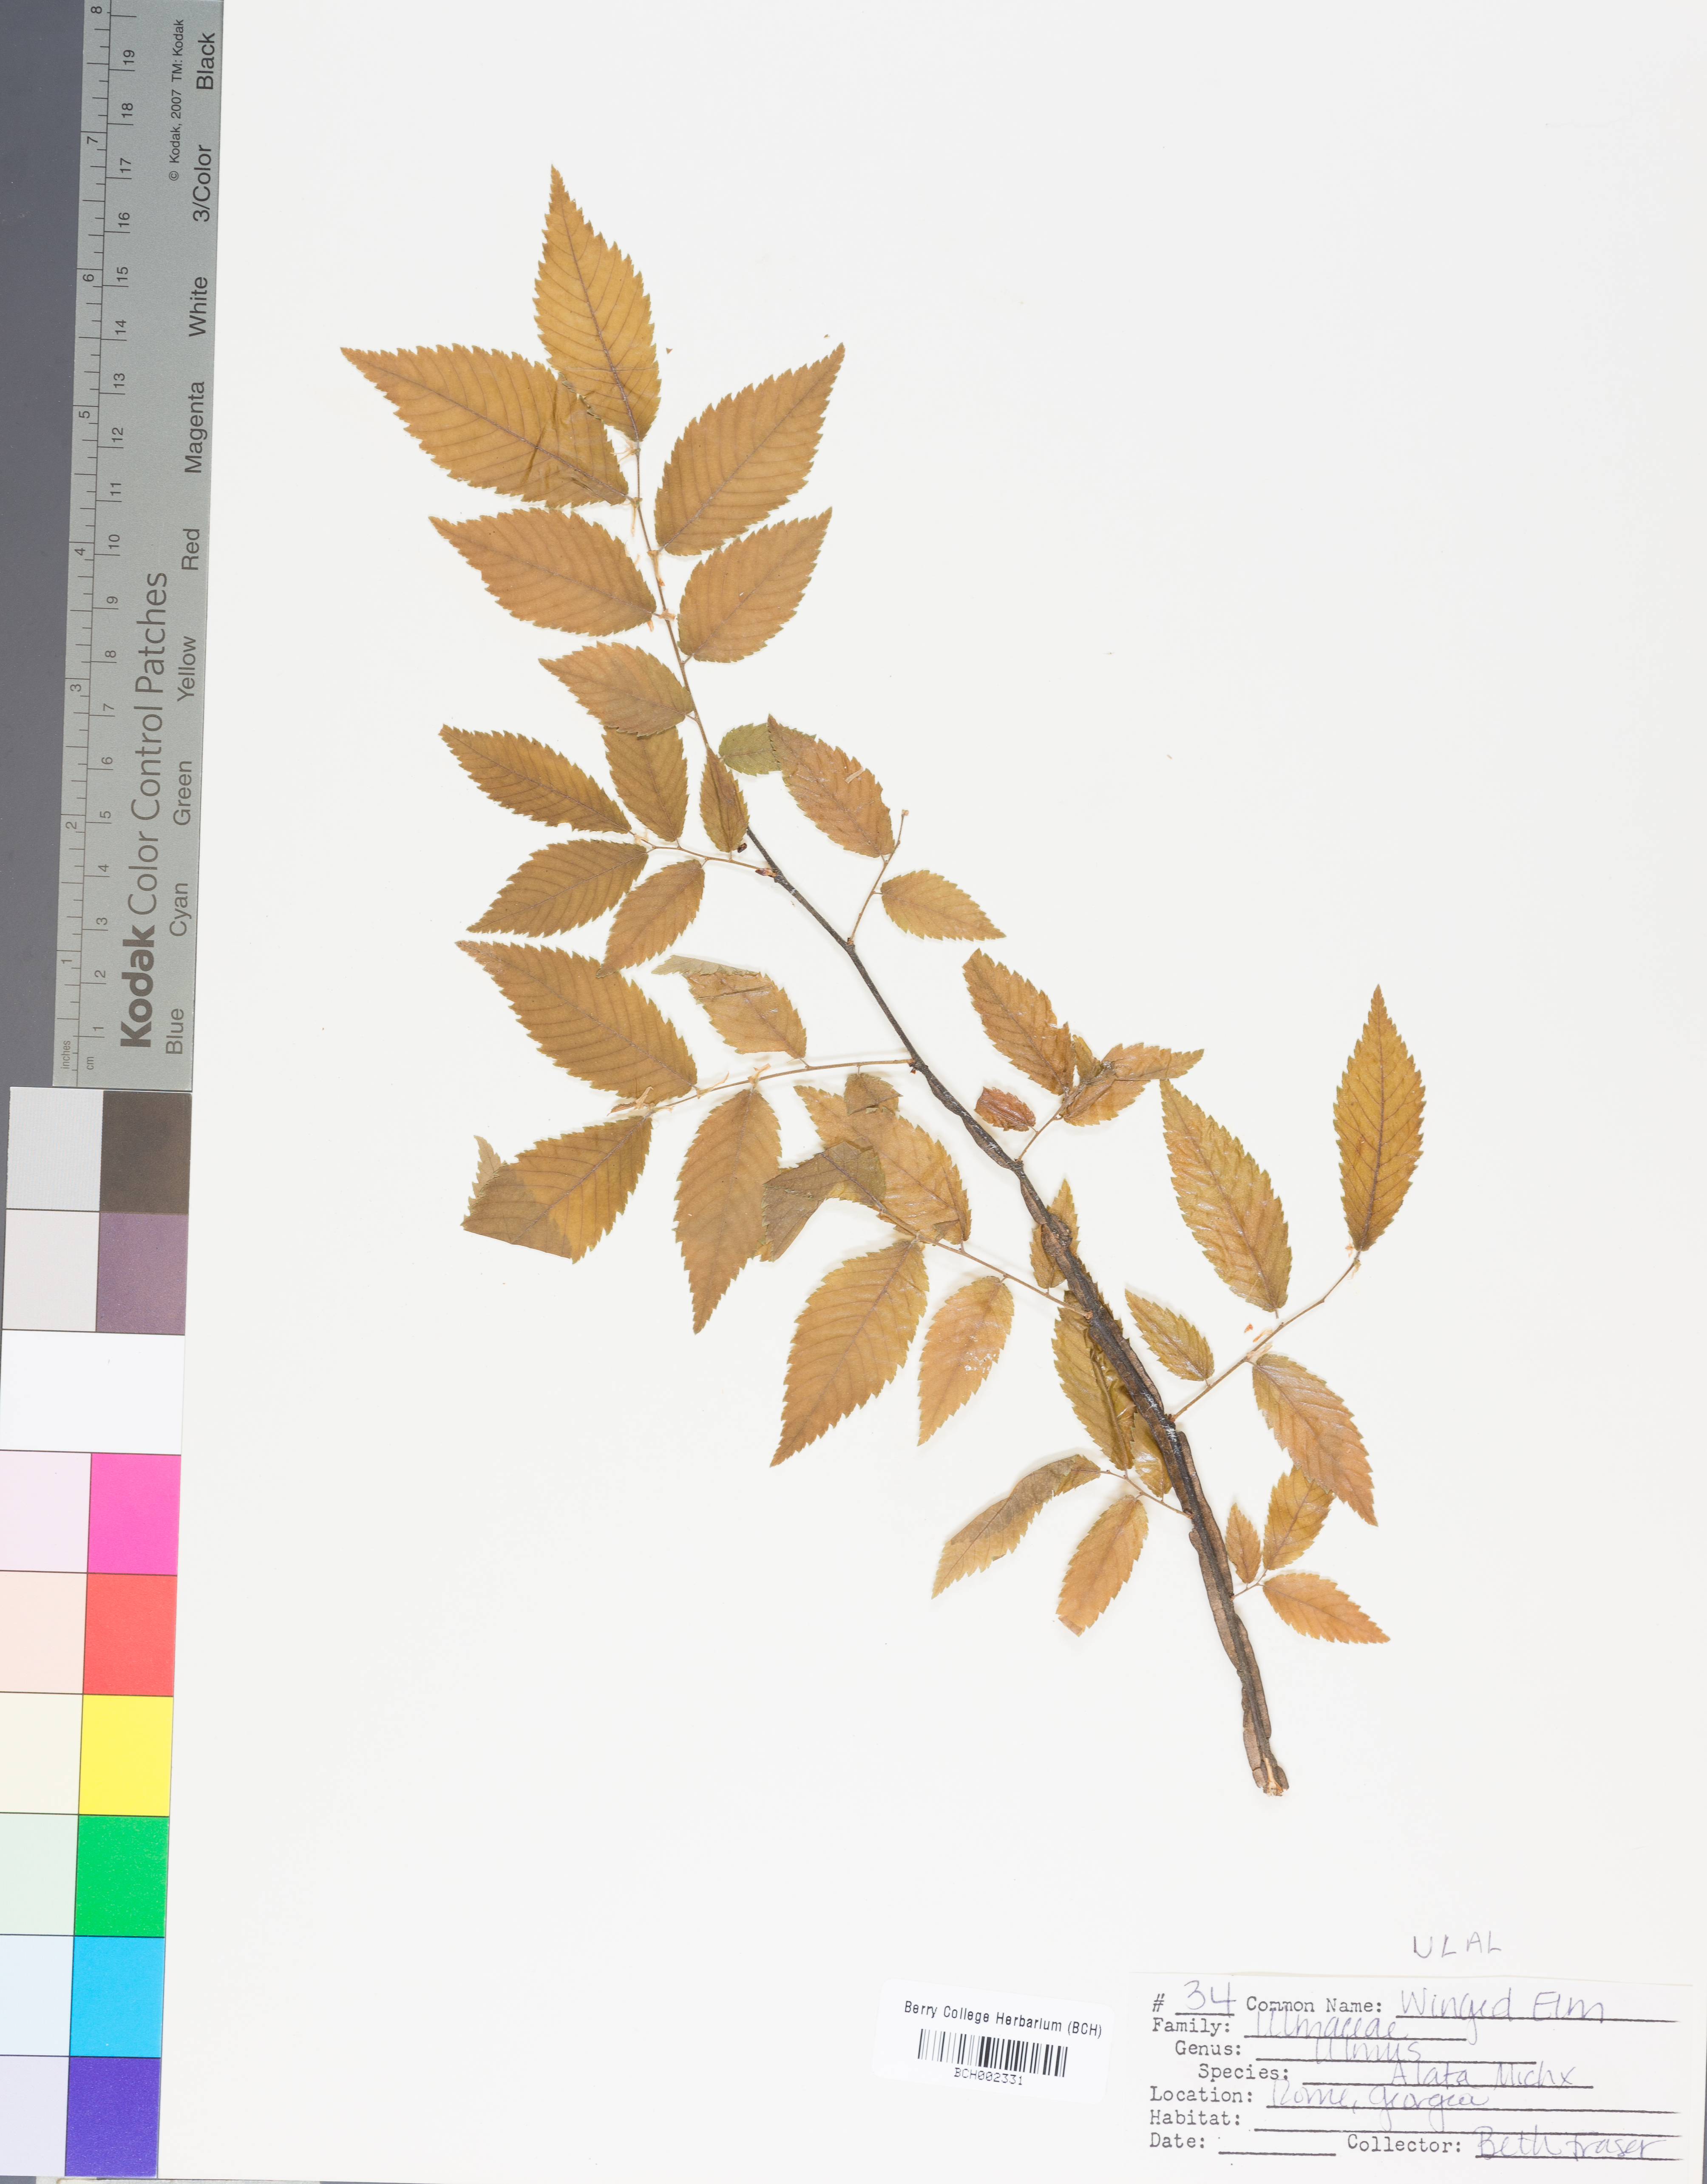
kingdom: Plantae
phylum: Tracheophyta
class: Magnoliopsida
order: Rosales
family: Ulmaceae
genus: Ulmus
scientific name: Ulmus alata
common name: Winged elm
